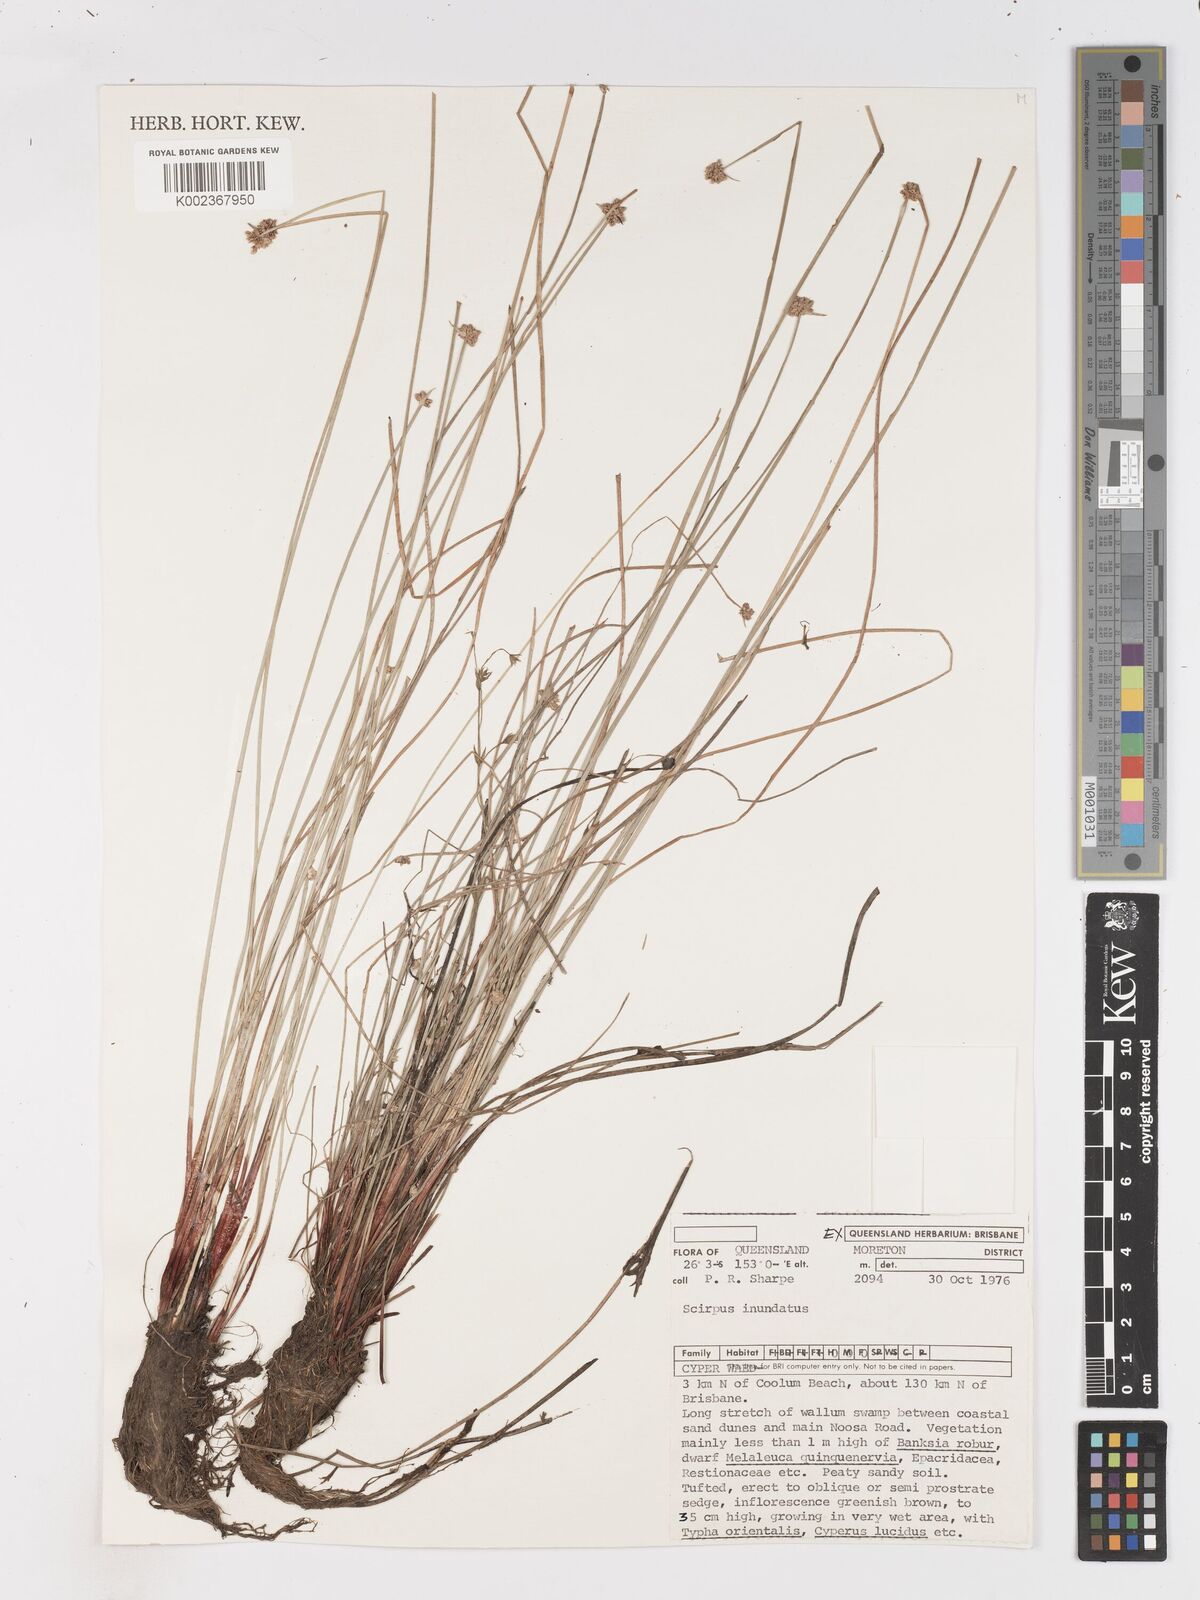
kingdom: Plantae
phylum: Tracheophyta
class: Liliopsida
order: Poales
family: Cyperaceae
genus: Isolepis
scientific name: Isolepis inundata
